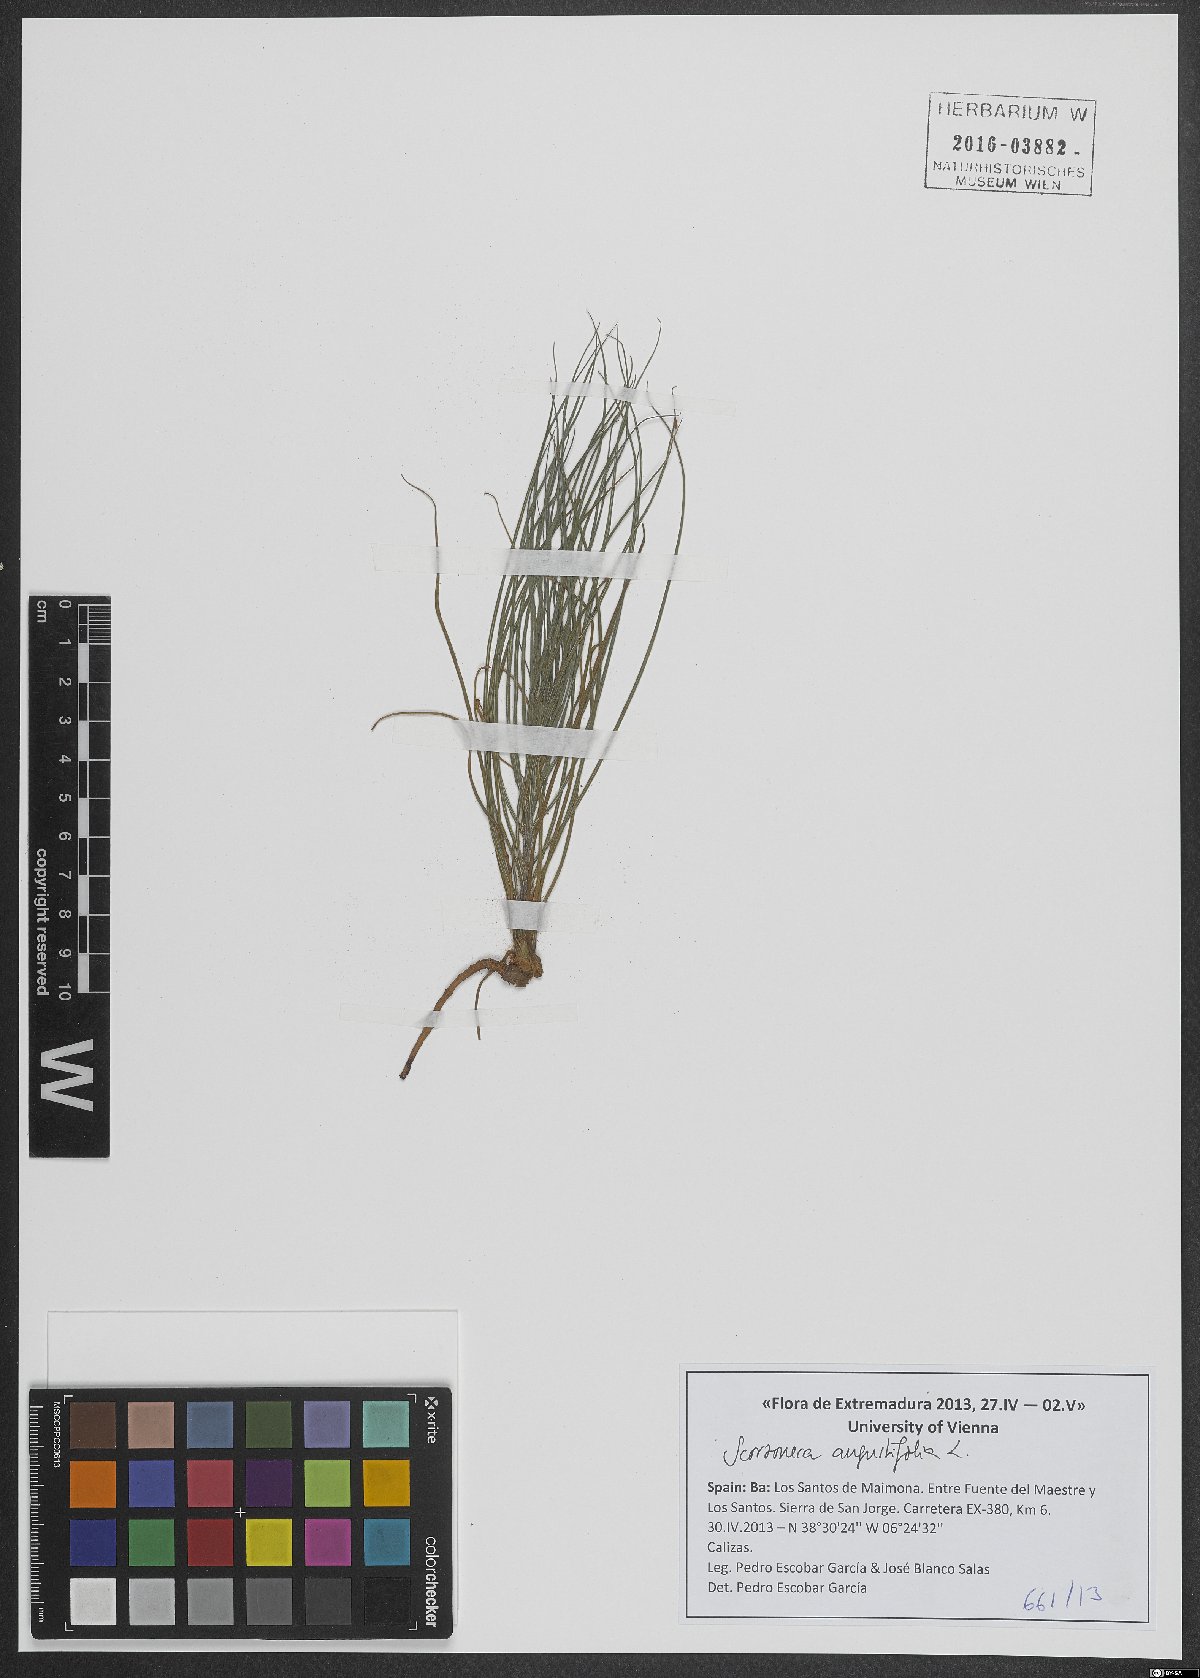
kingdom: Plantae
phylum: Tracheophyta
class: Magnoliopsida
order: Asterales
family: Asteraceae
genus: Scorzonera
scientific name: Scorzonera angustifolia
